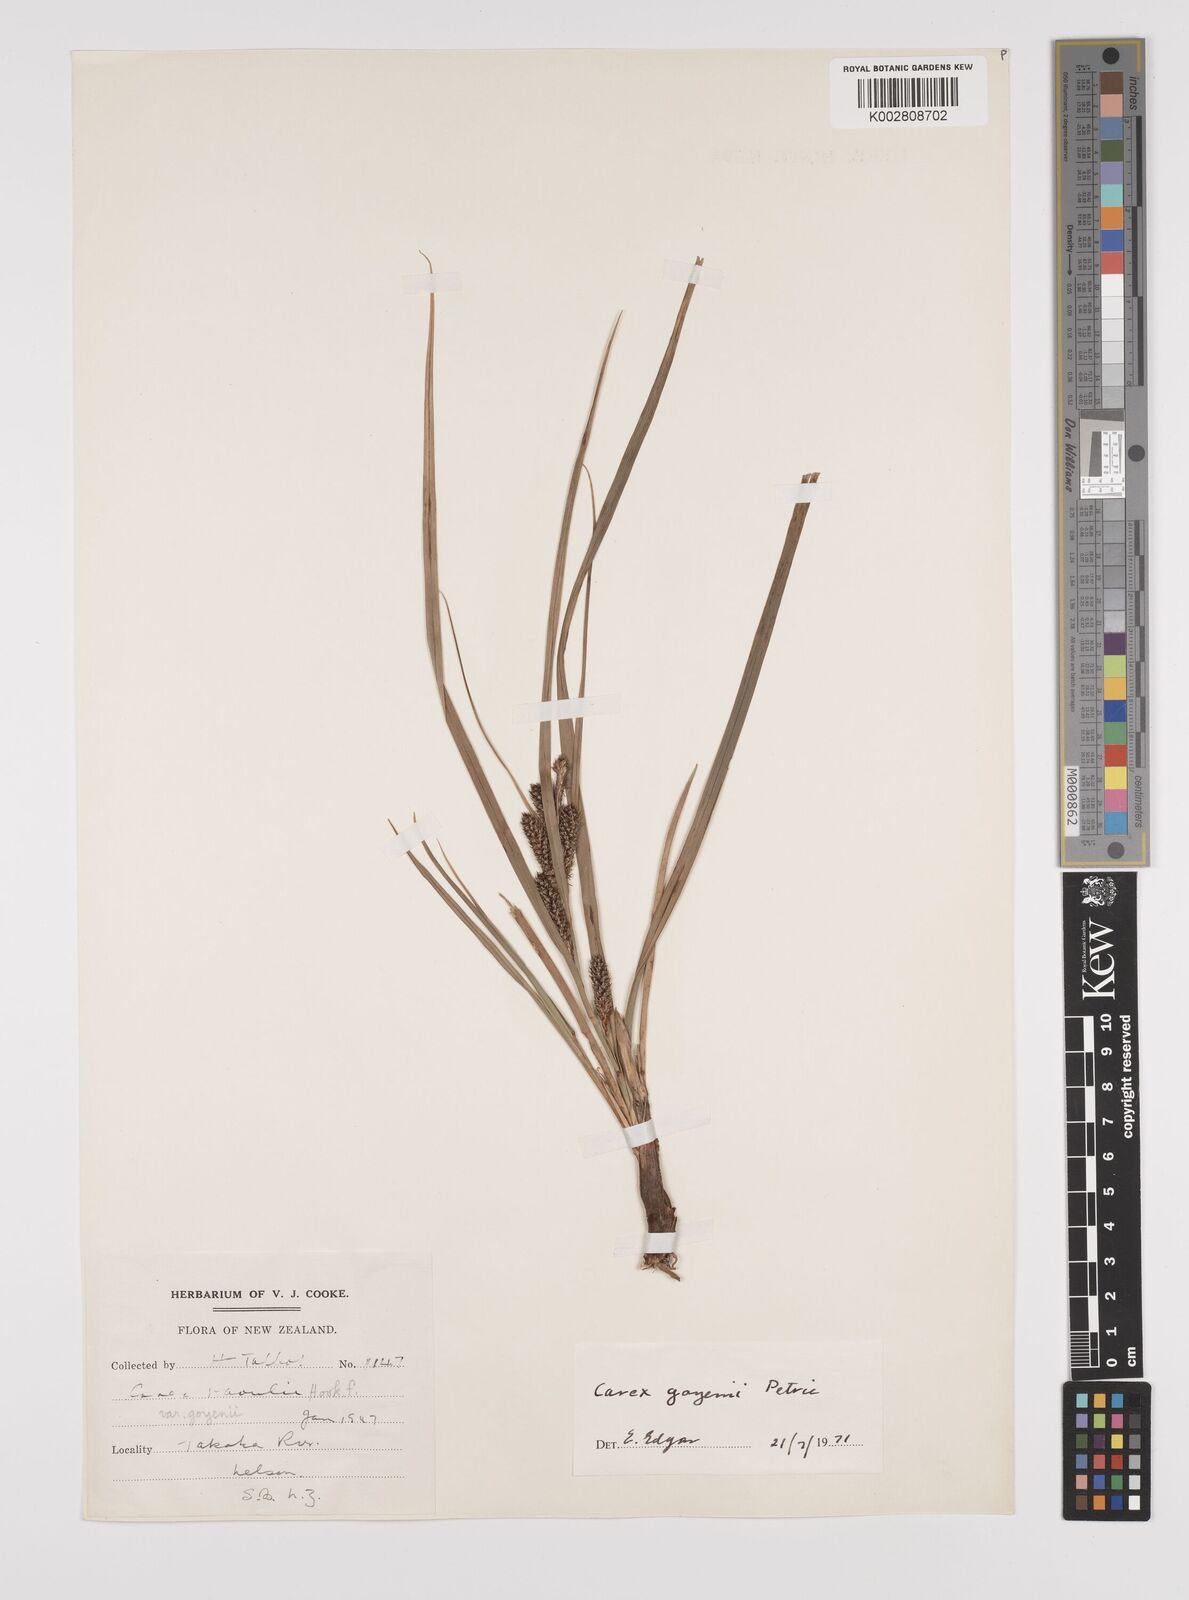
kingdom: Plantae
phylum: Tracheophyta
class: Liliopsida
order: Poales
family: Cyperaceae
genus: Carex
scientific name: Carex raoulii
